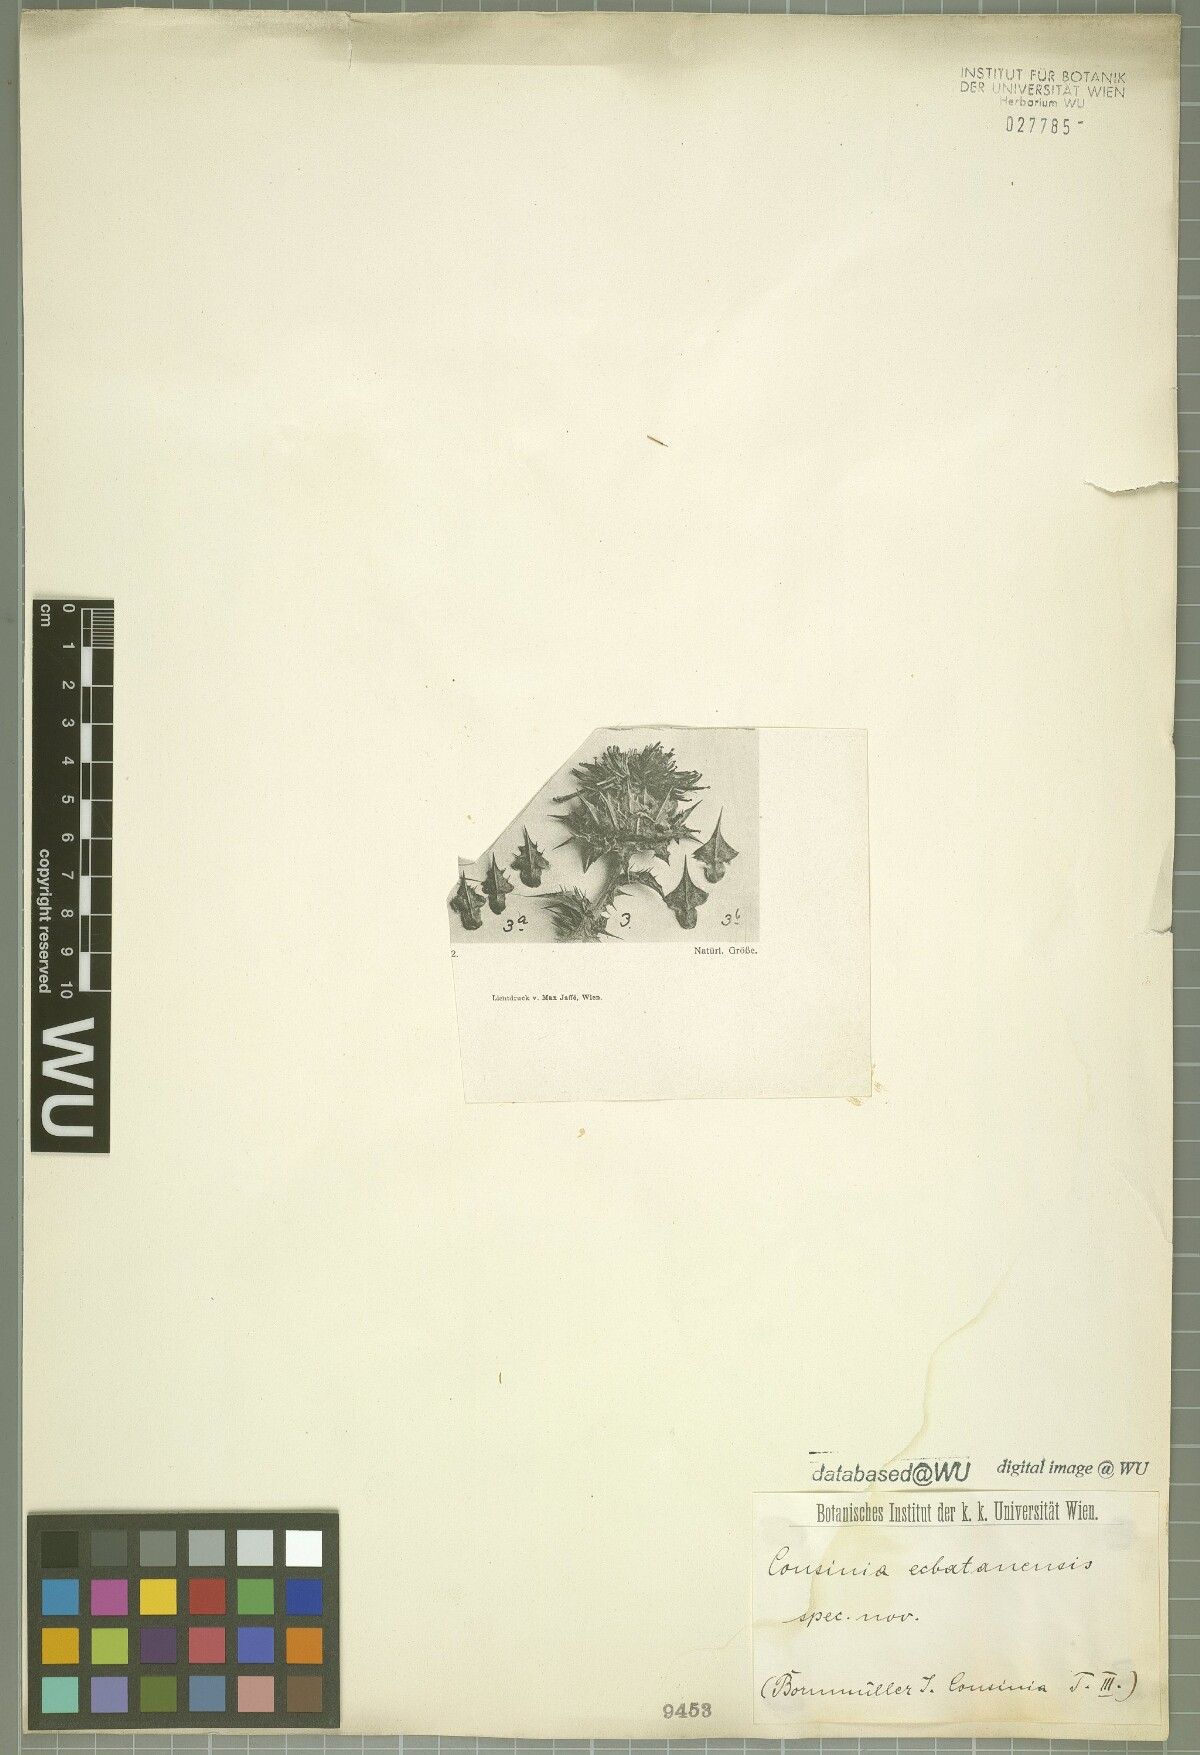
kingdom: Plantae
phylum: Tracheophyta
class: Magnoliopsida
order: Asterales
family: Asteraceae
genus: Cousinia
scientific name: Cousinia ecbatanensis
